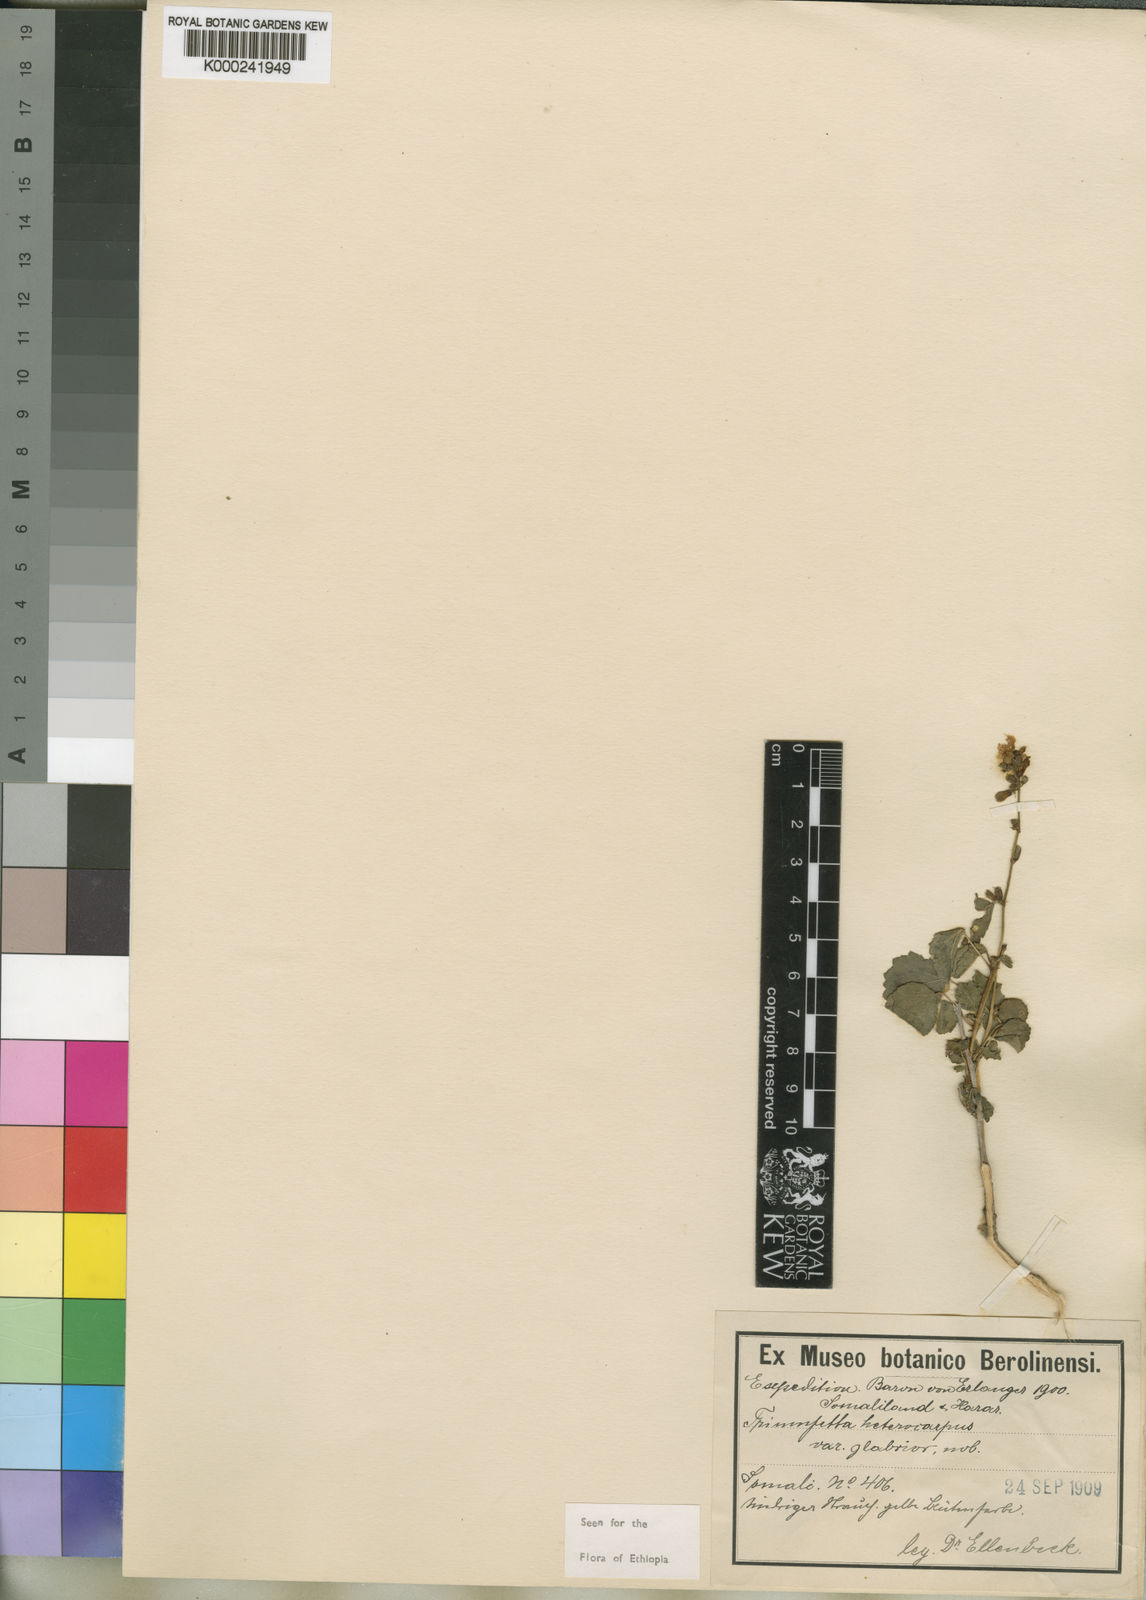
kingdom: Plantae
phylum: Tracheophyta
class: Magnoliopsida
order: Malvales
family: Malvaceae
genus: Triumfetta
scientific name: Triumfetta heterocarpa
